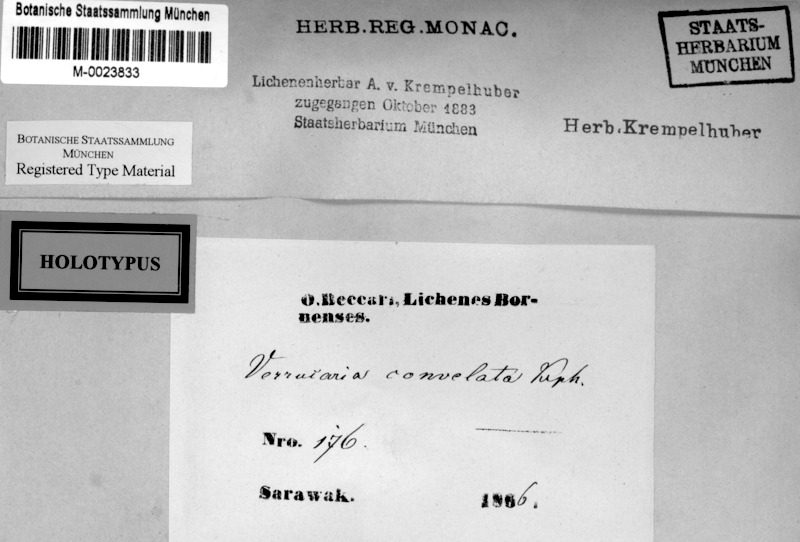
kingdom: Fungi
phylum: Ascomycota
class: Lecanoromycetes
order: Pertusariales
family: Pertusariaceae
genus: Porina
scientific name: Porina
